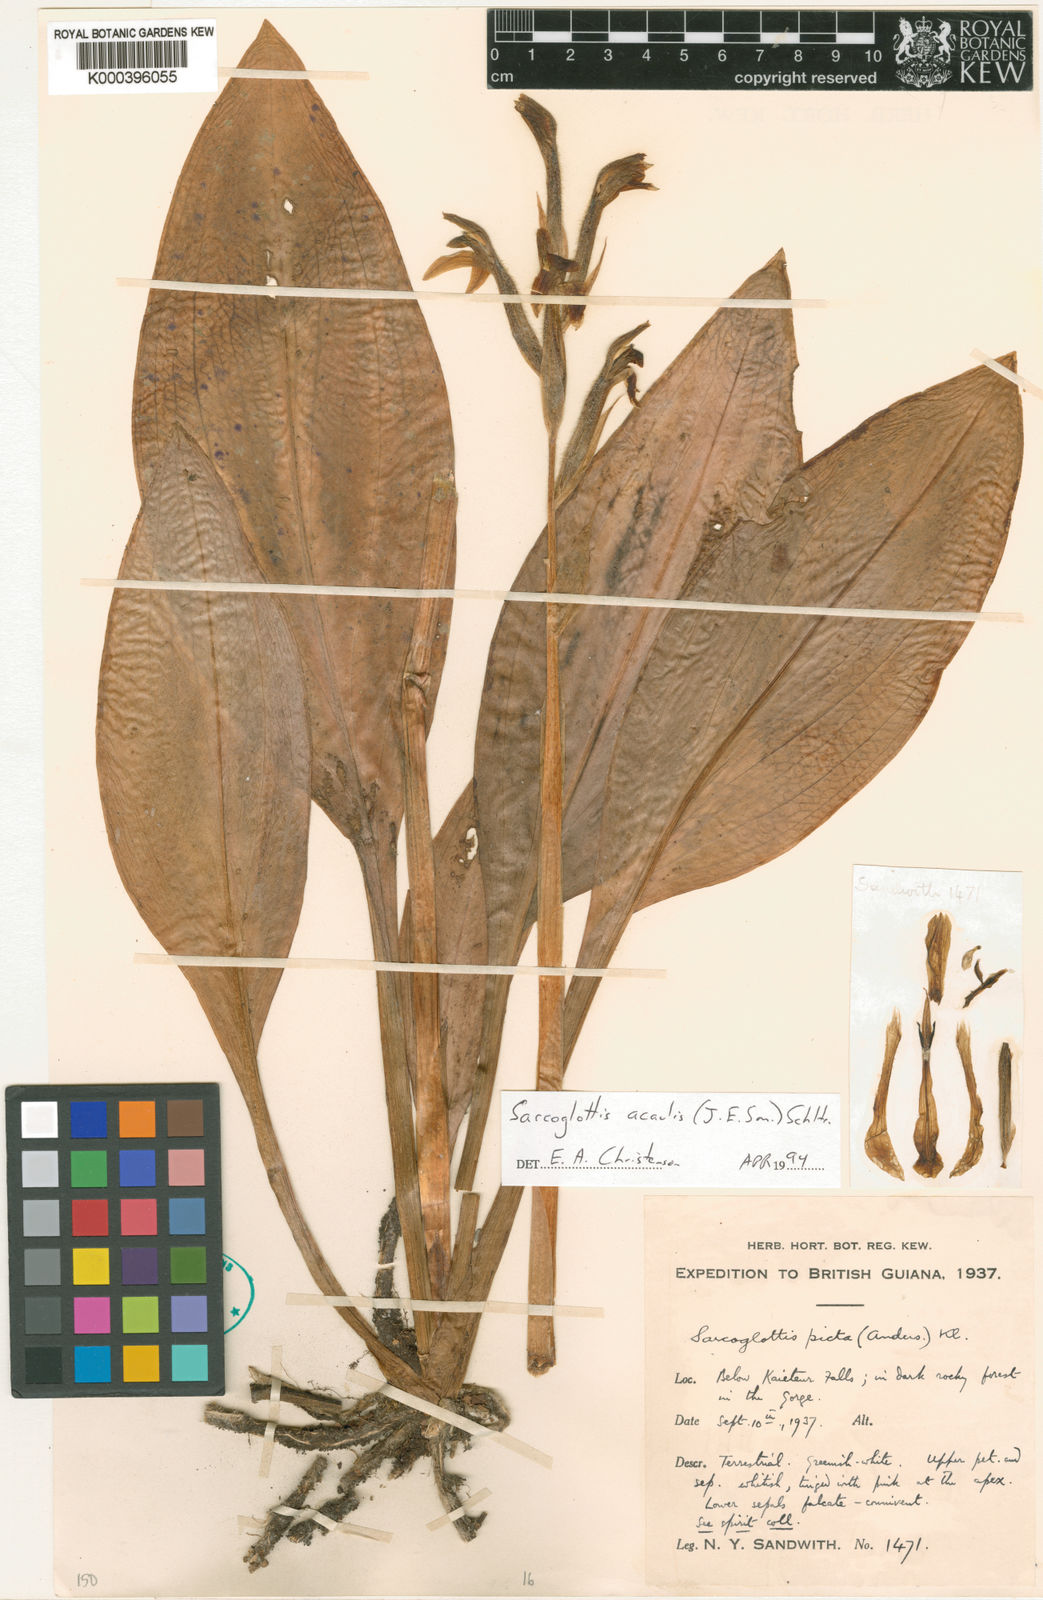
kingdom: Plantae
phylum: Tracheophyta
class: Liliopsida
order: Asparagales
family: Orchidaceae
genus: Sarcoglottis
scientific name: Sarcoglottis acaulis
